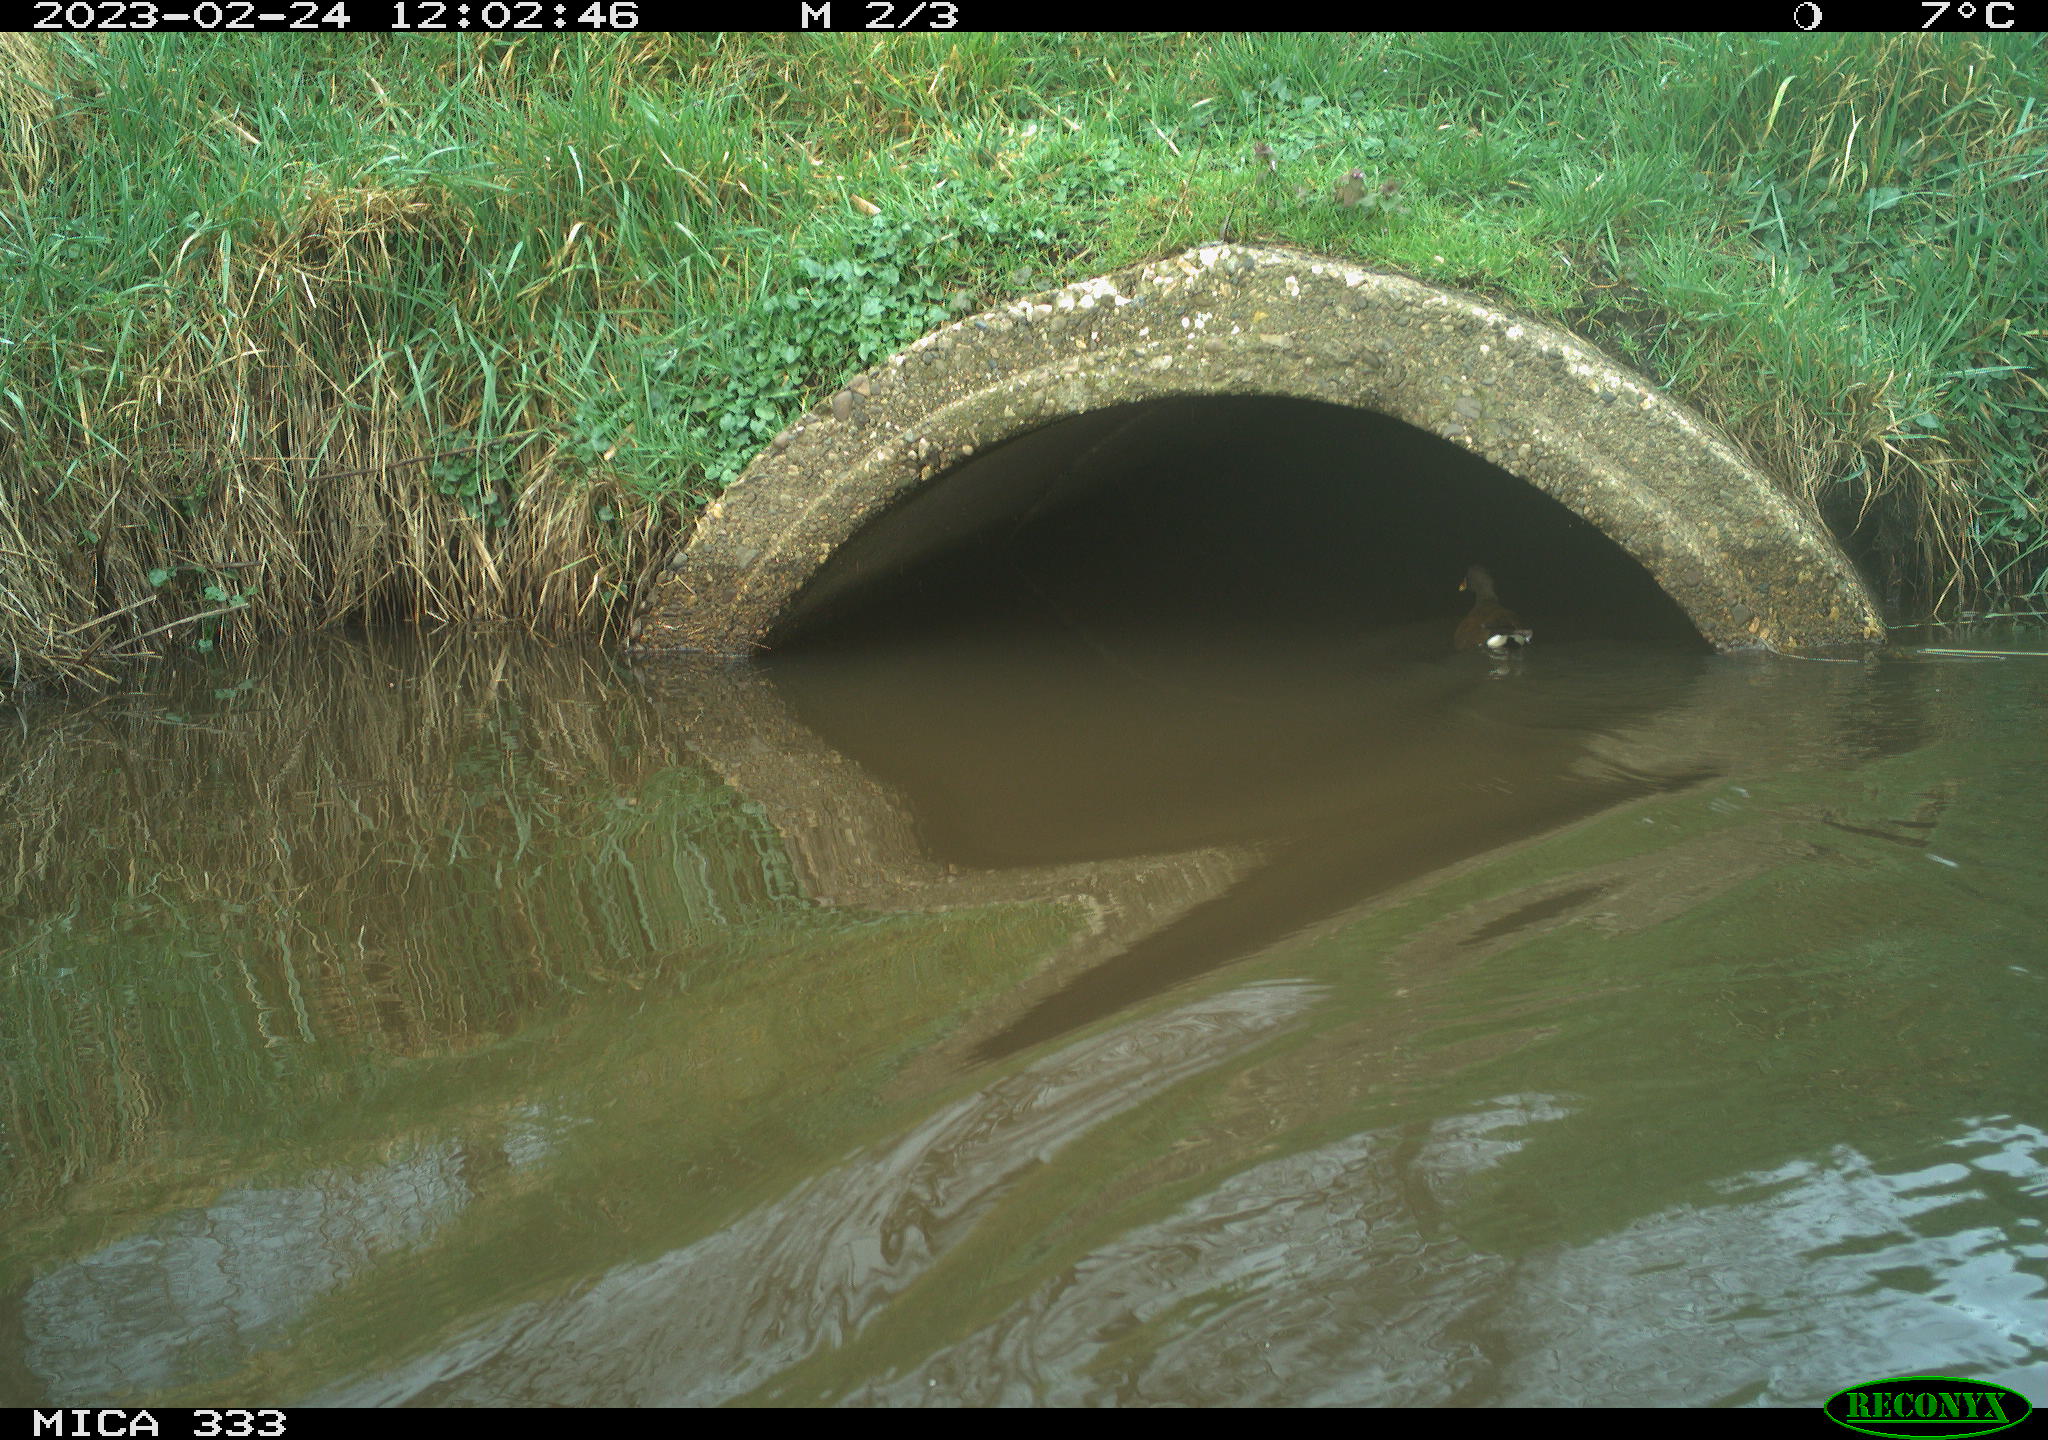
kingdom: Animalia
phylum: Chordata
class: Aves
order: Gruiformes
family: Rallidae
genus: Gallinula
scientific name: Gallinula chloropus
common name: Common moorhen
